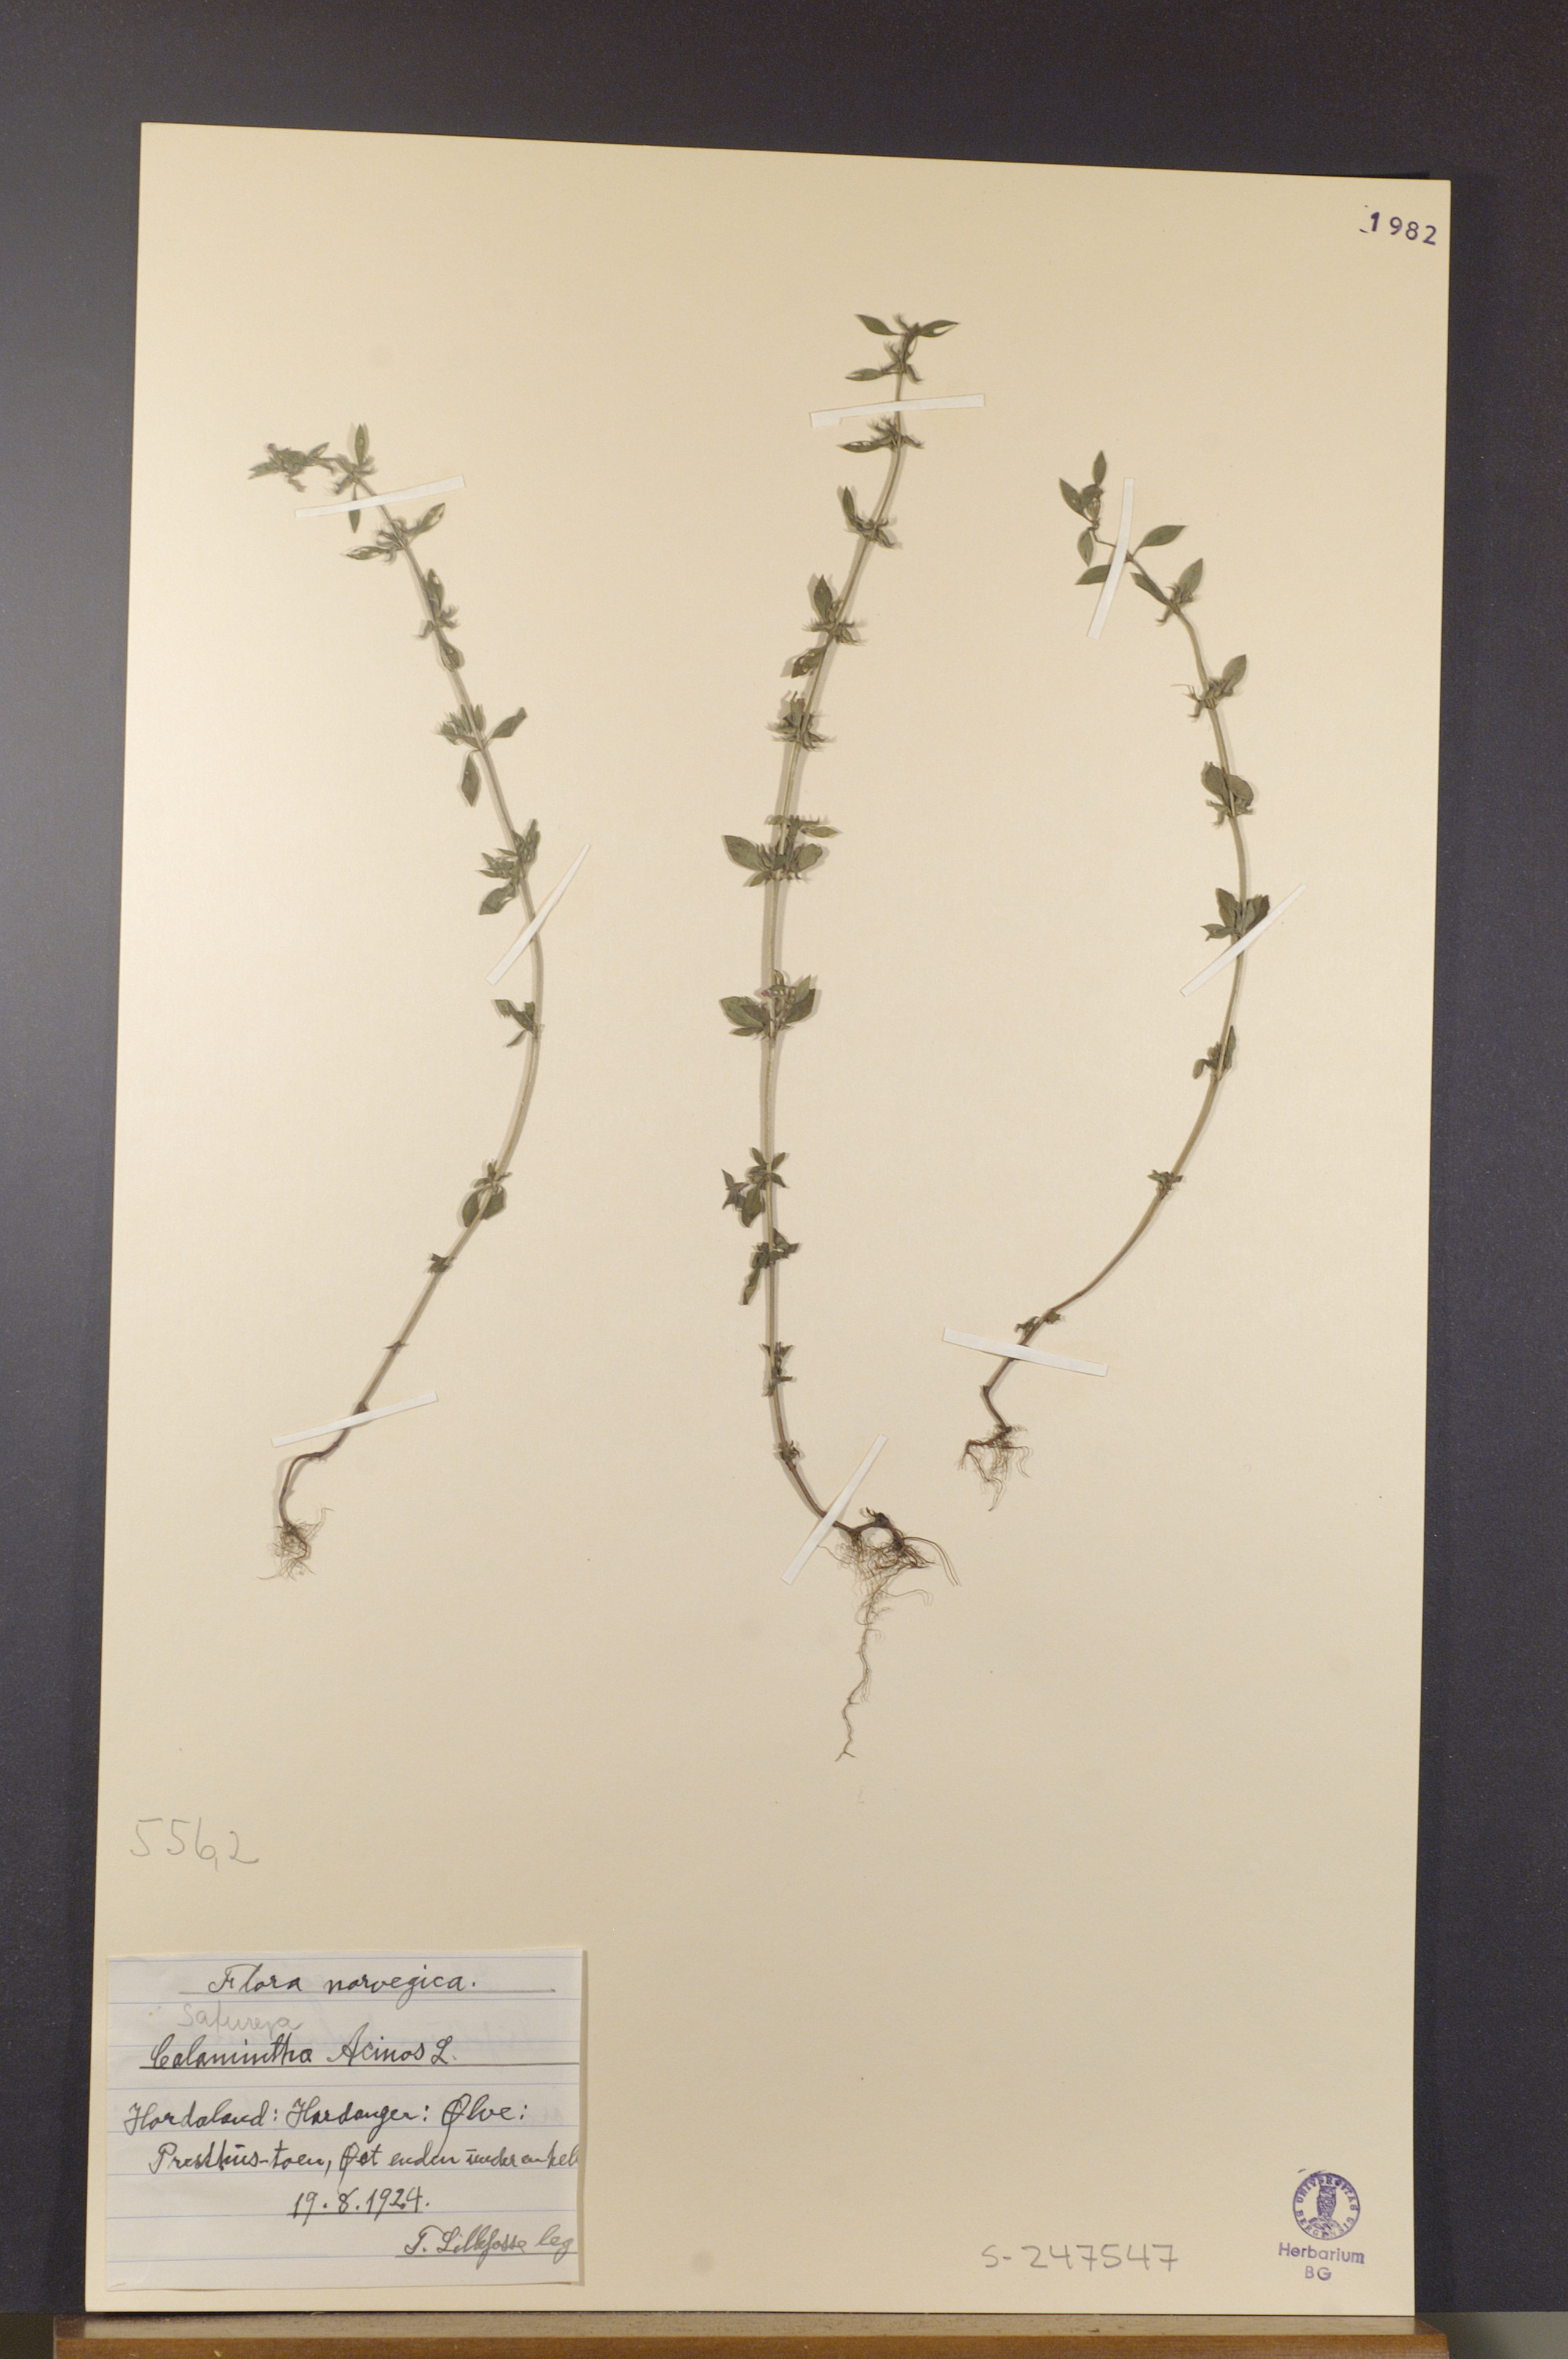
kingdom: Plantae
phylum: Tracheophyta
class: Magnoliopsida
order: Lamiales
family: Lamiaceae
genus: Clinopodium
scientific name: Clinopodium acinos
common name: Basil thyme
